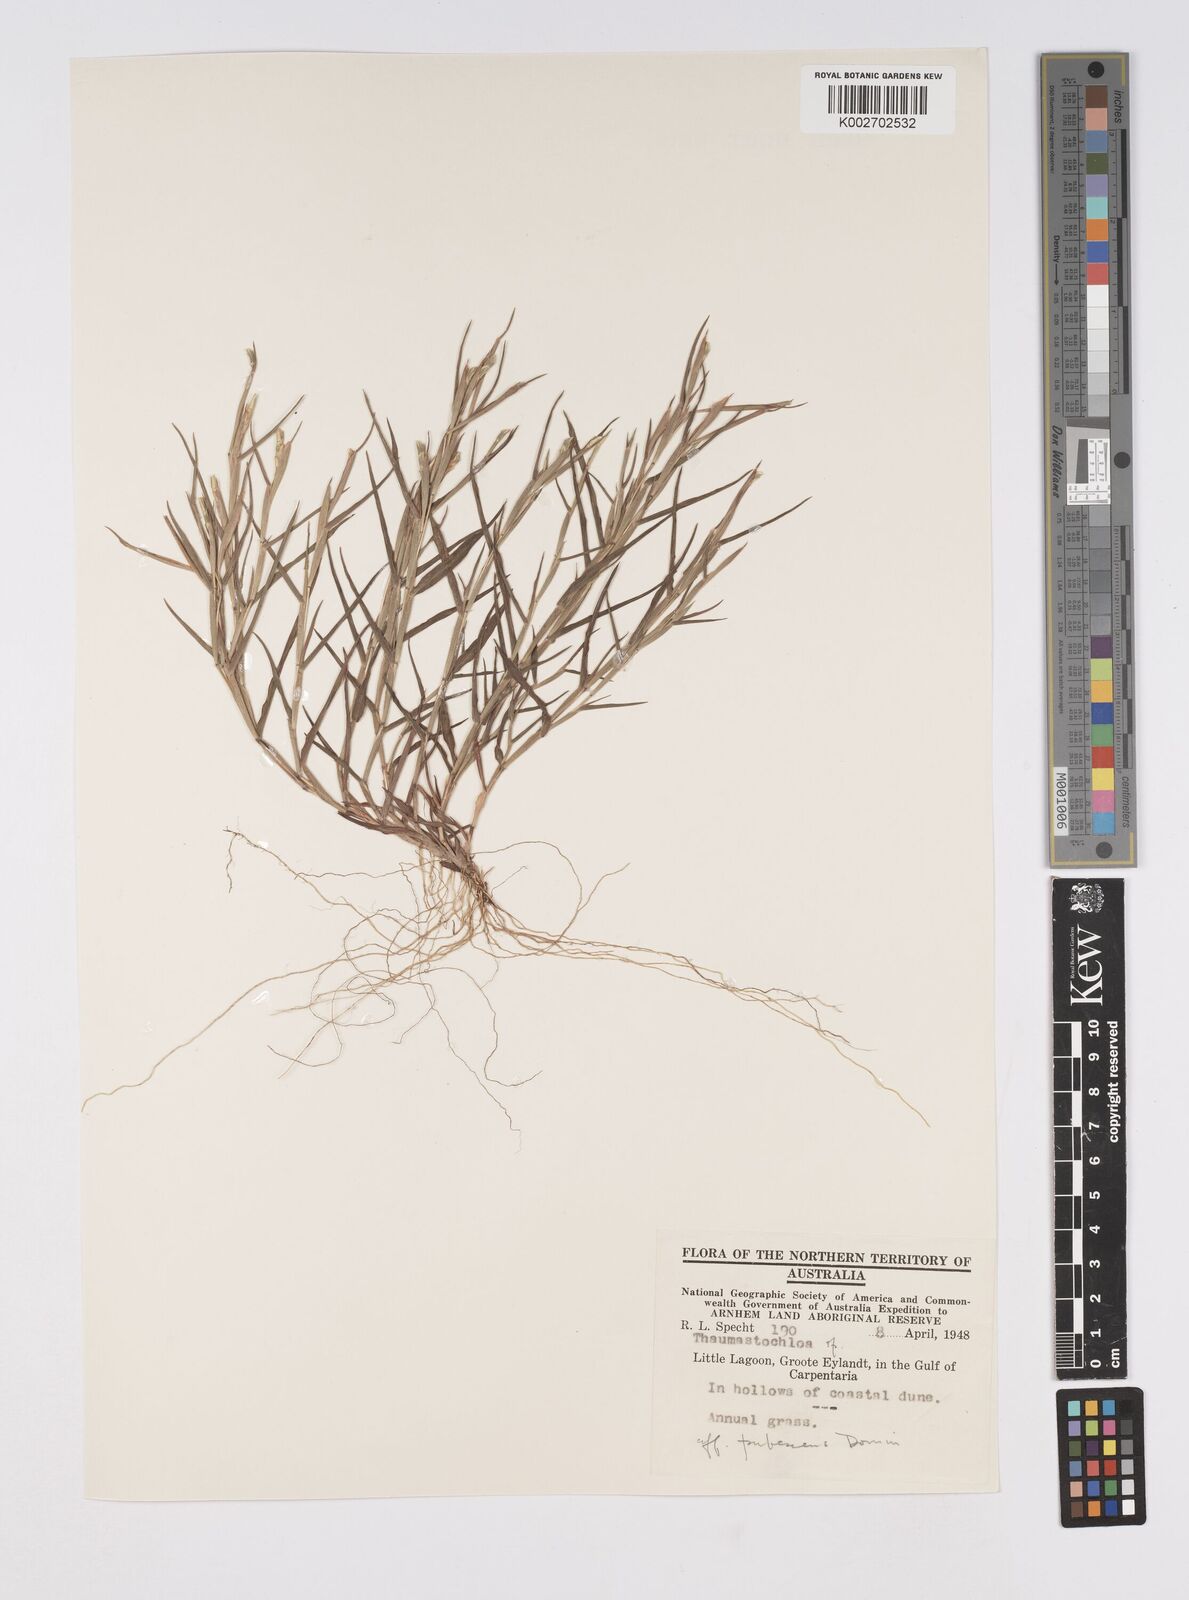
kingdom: Plantae
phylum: Tracheophyta
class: Liliopsida
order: Poales
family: Poaceae
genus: Thaumastochloa
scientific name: Thaumastochloa pubescens
